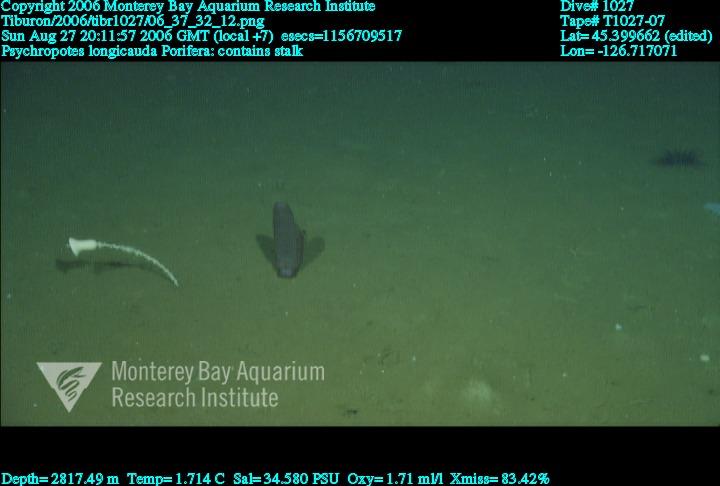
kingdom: Animalia
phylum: Porifera
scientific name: Porifera
